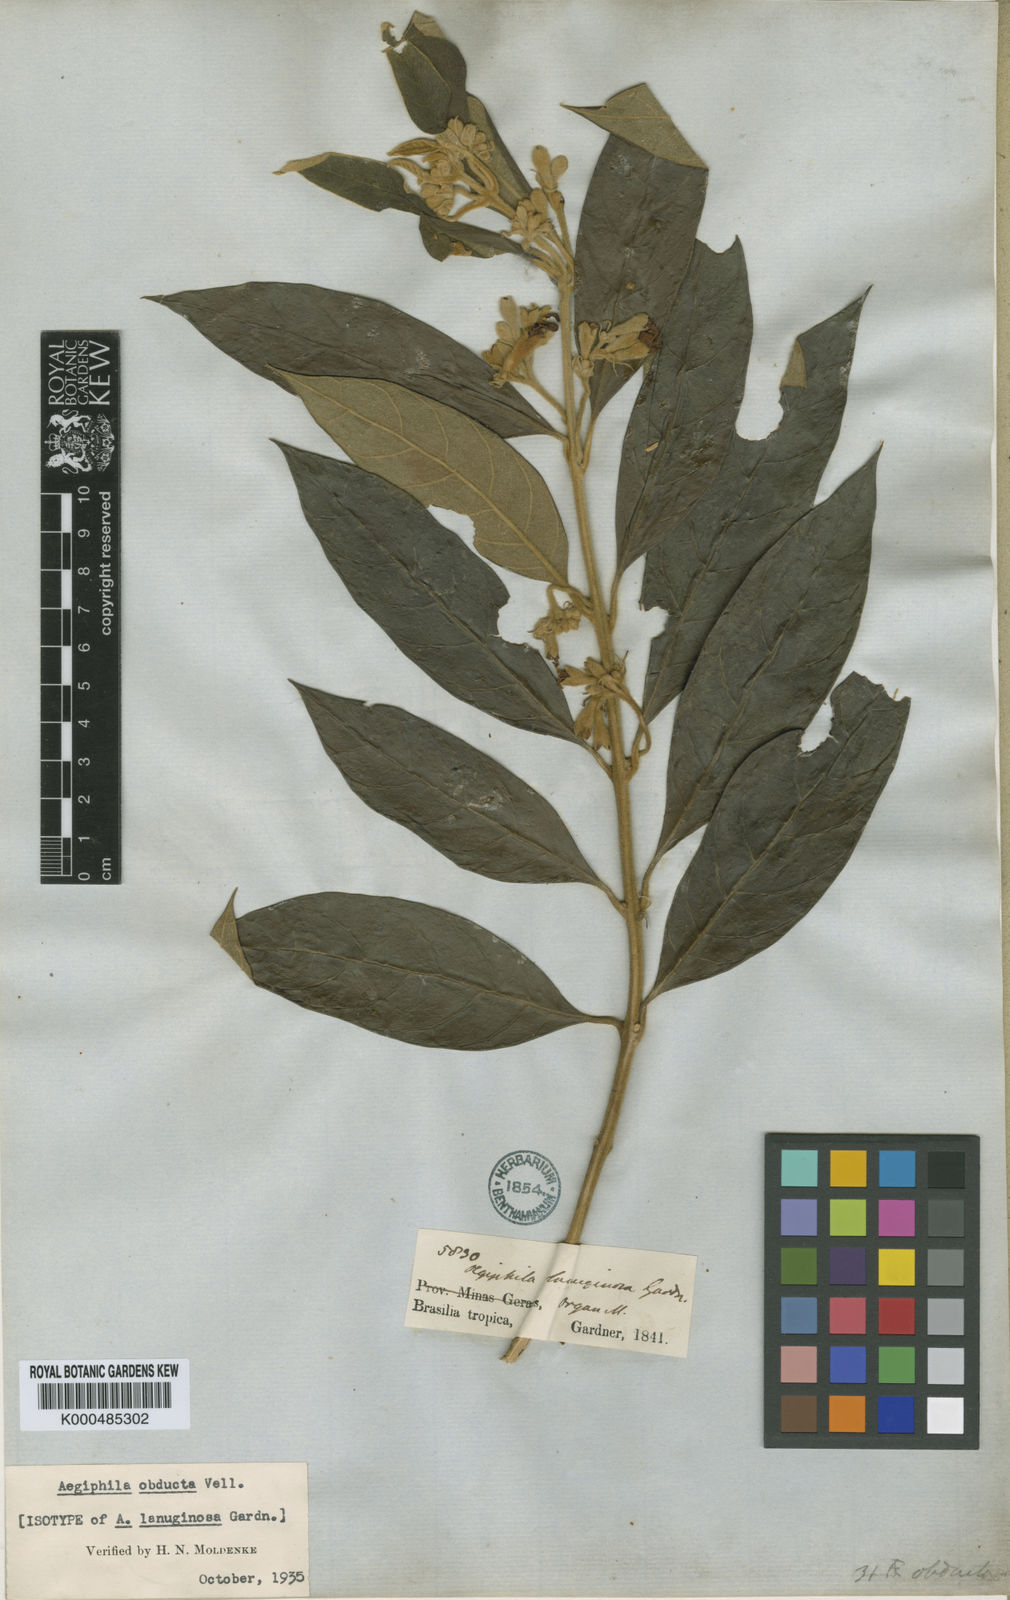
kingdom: Plantae
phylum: Tracheophyta
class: Magnoliopsida
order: Lamiales
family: Lamiaceae
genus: Aegiphila
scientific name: Aegiphila obducta
